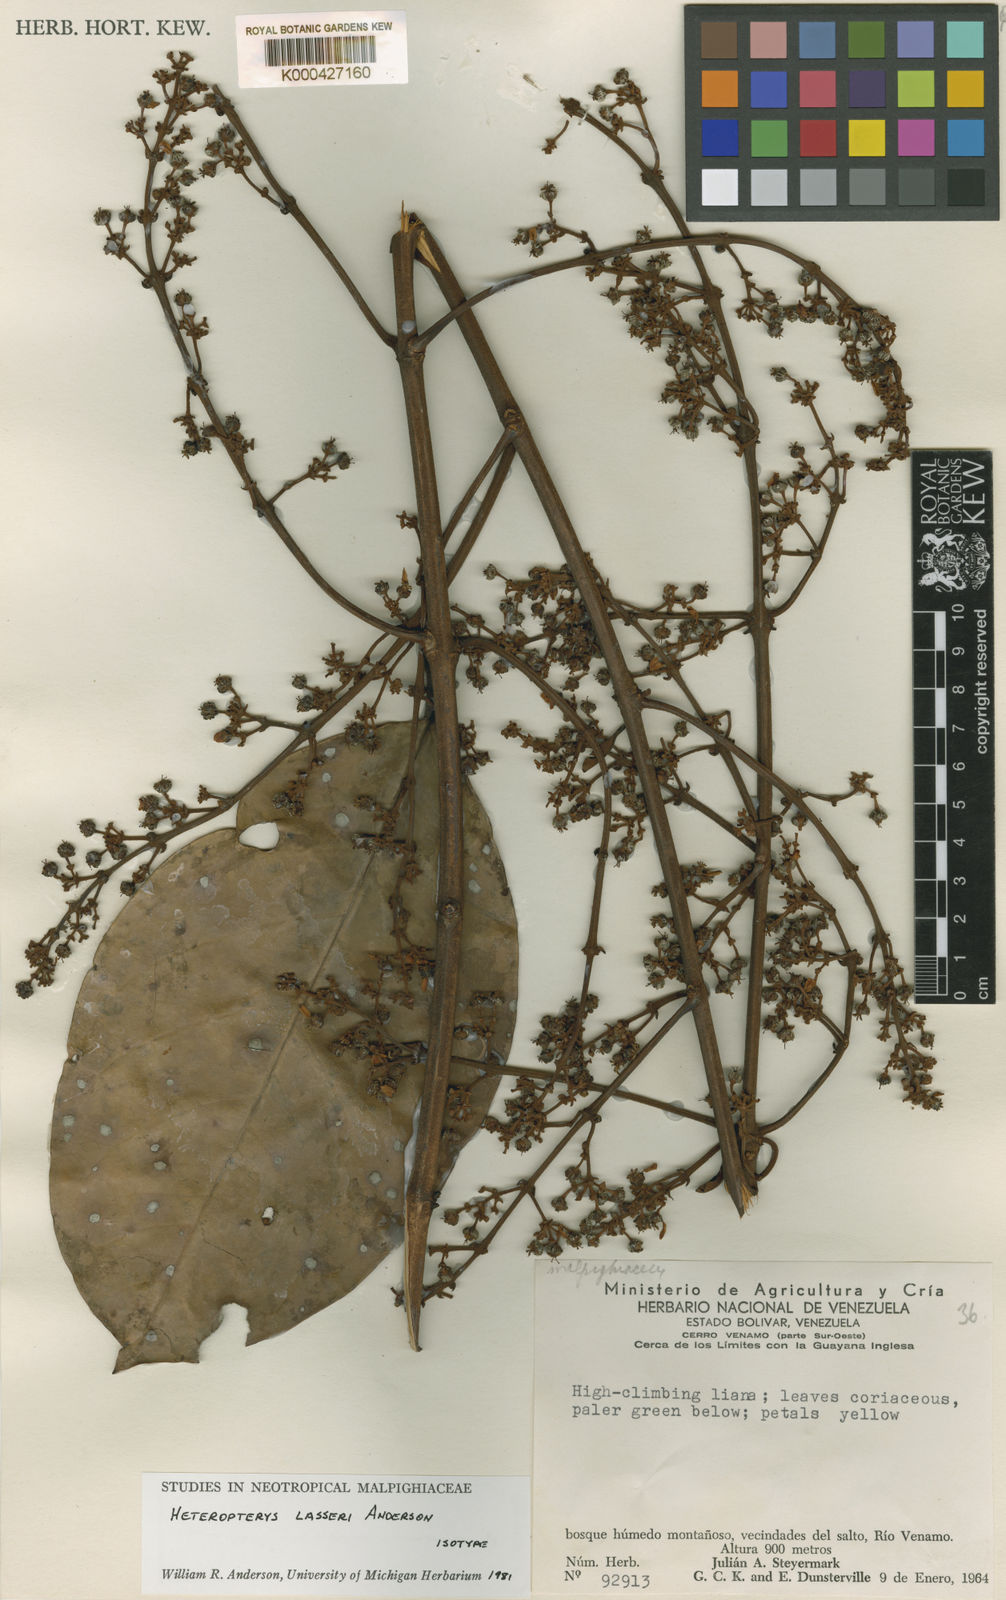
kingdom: Plantae
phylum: Tracheophyta
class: Magnoliopsida
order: Malpighiales
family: Malpighiaceae
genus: Heteropterys
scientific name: Heteropterys megaptera
